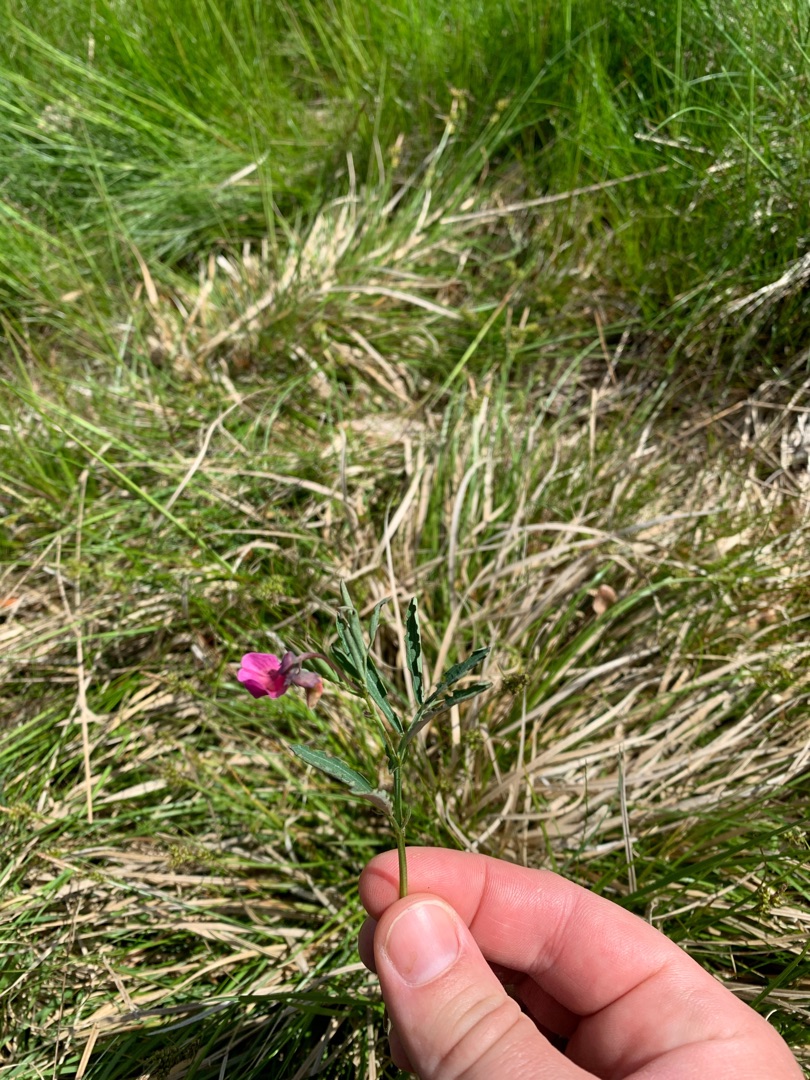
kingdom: Plantae
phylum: Tracheophyta
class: Magnoliopsida
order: Fabales
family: Fabaceae
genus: Lathyrus
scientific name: Lathyrus linifolius
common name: Krat-fladbælg
